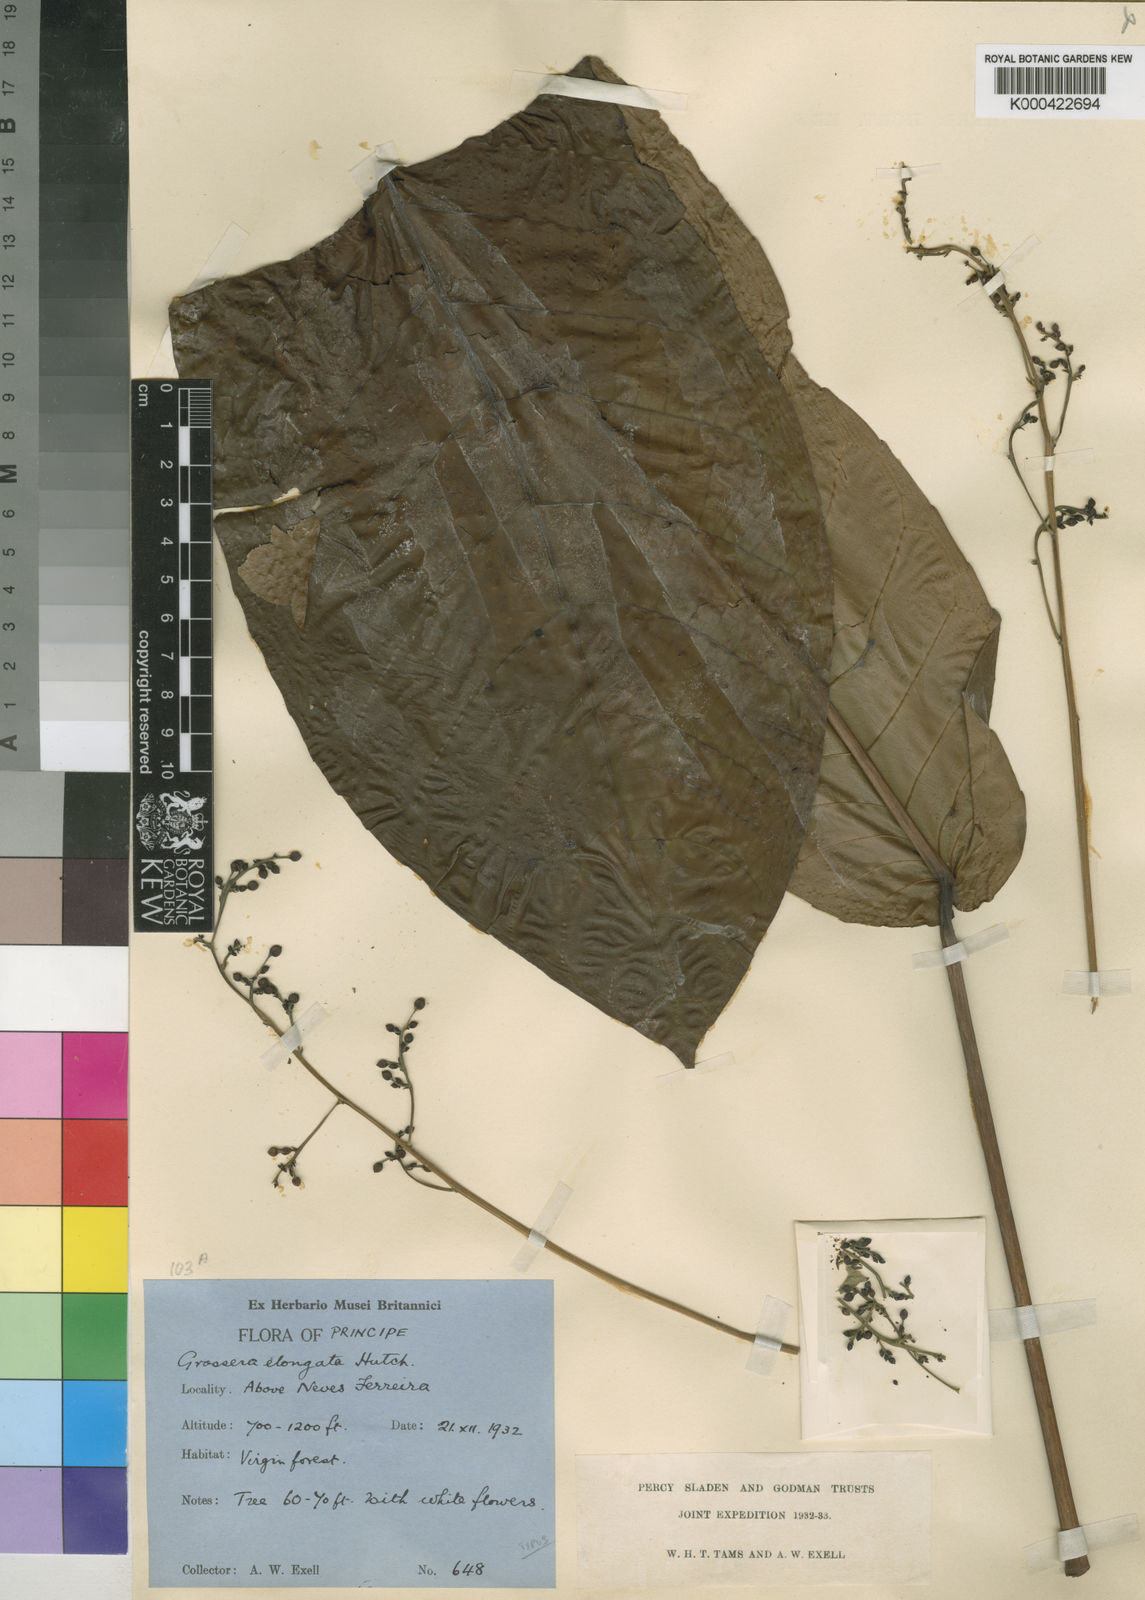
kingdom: Plantae
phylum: Tracheophyta
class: Magnoliopsida
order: Malpighiales
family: Euphorbiaceae
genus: Grossera
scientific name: Grossera elongata
